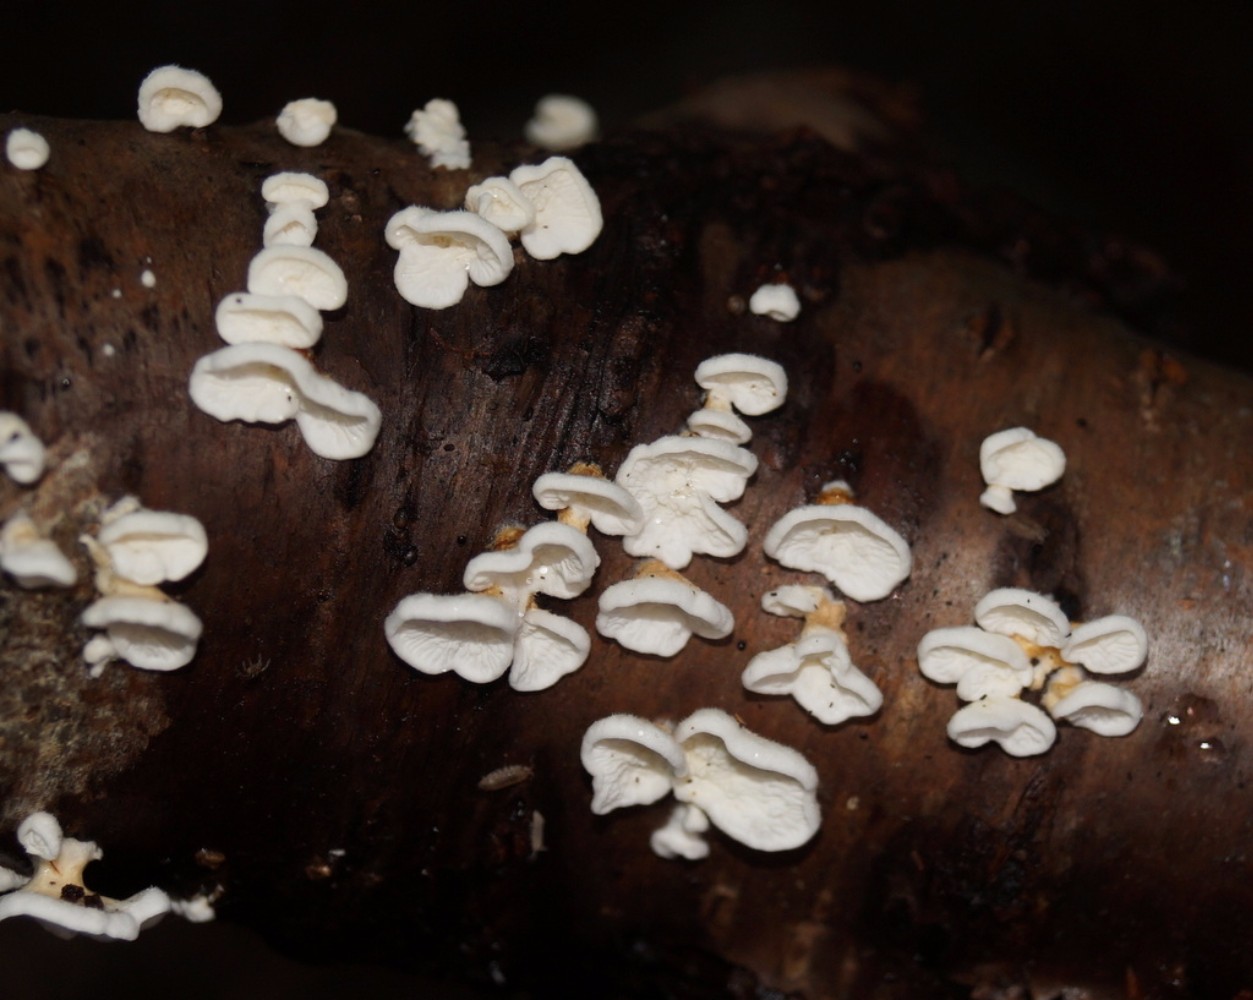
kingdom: Fungi
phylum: Basidiomycota
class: Agaricomycetes
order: Amylocorticiales
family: Amylocorticiaceae
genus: Plicaturopsis
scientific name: Plicaturopsis crispa
